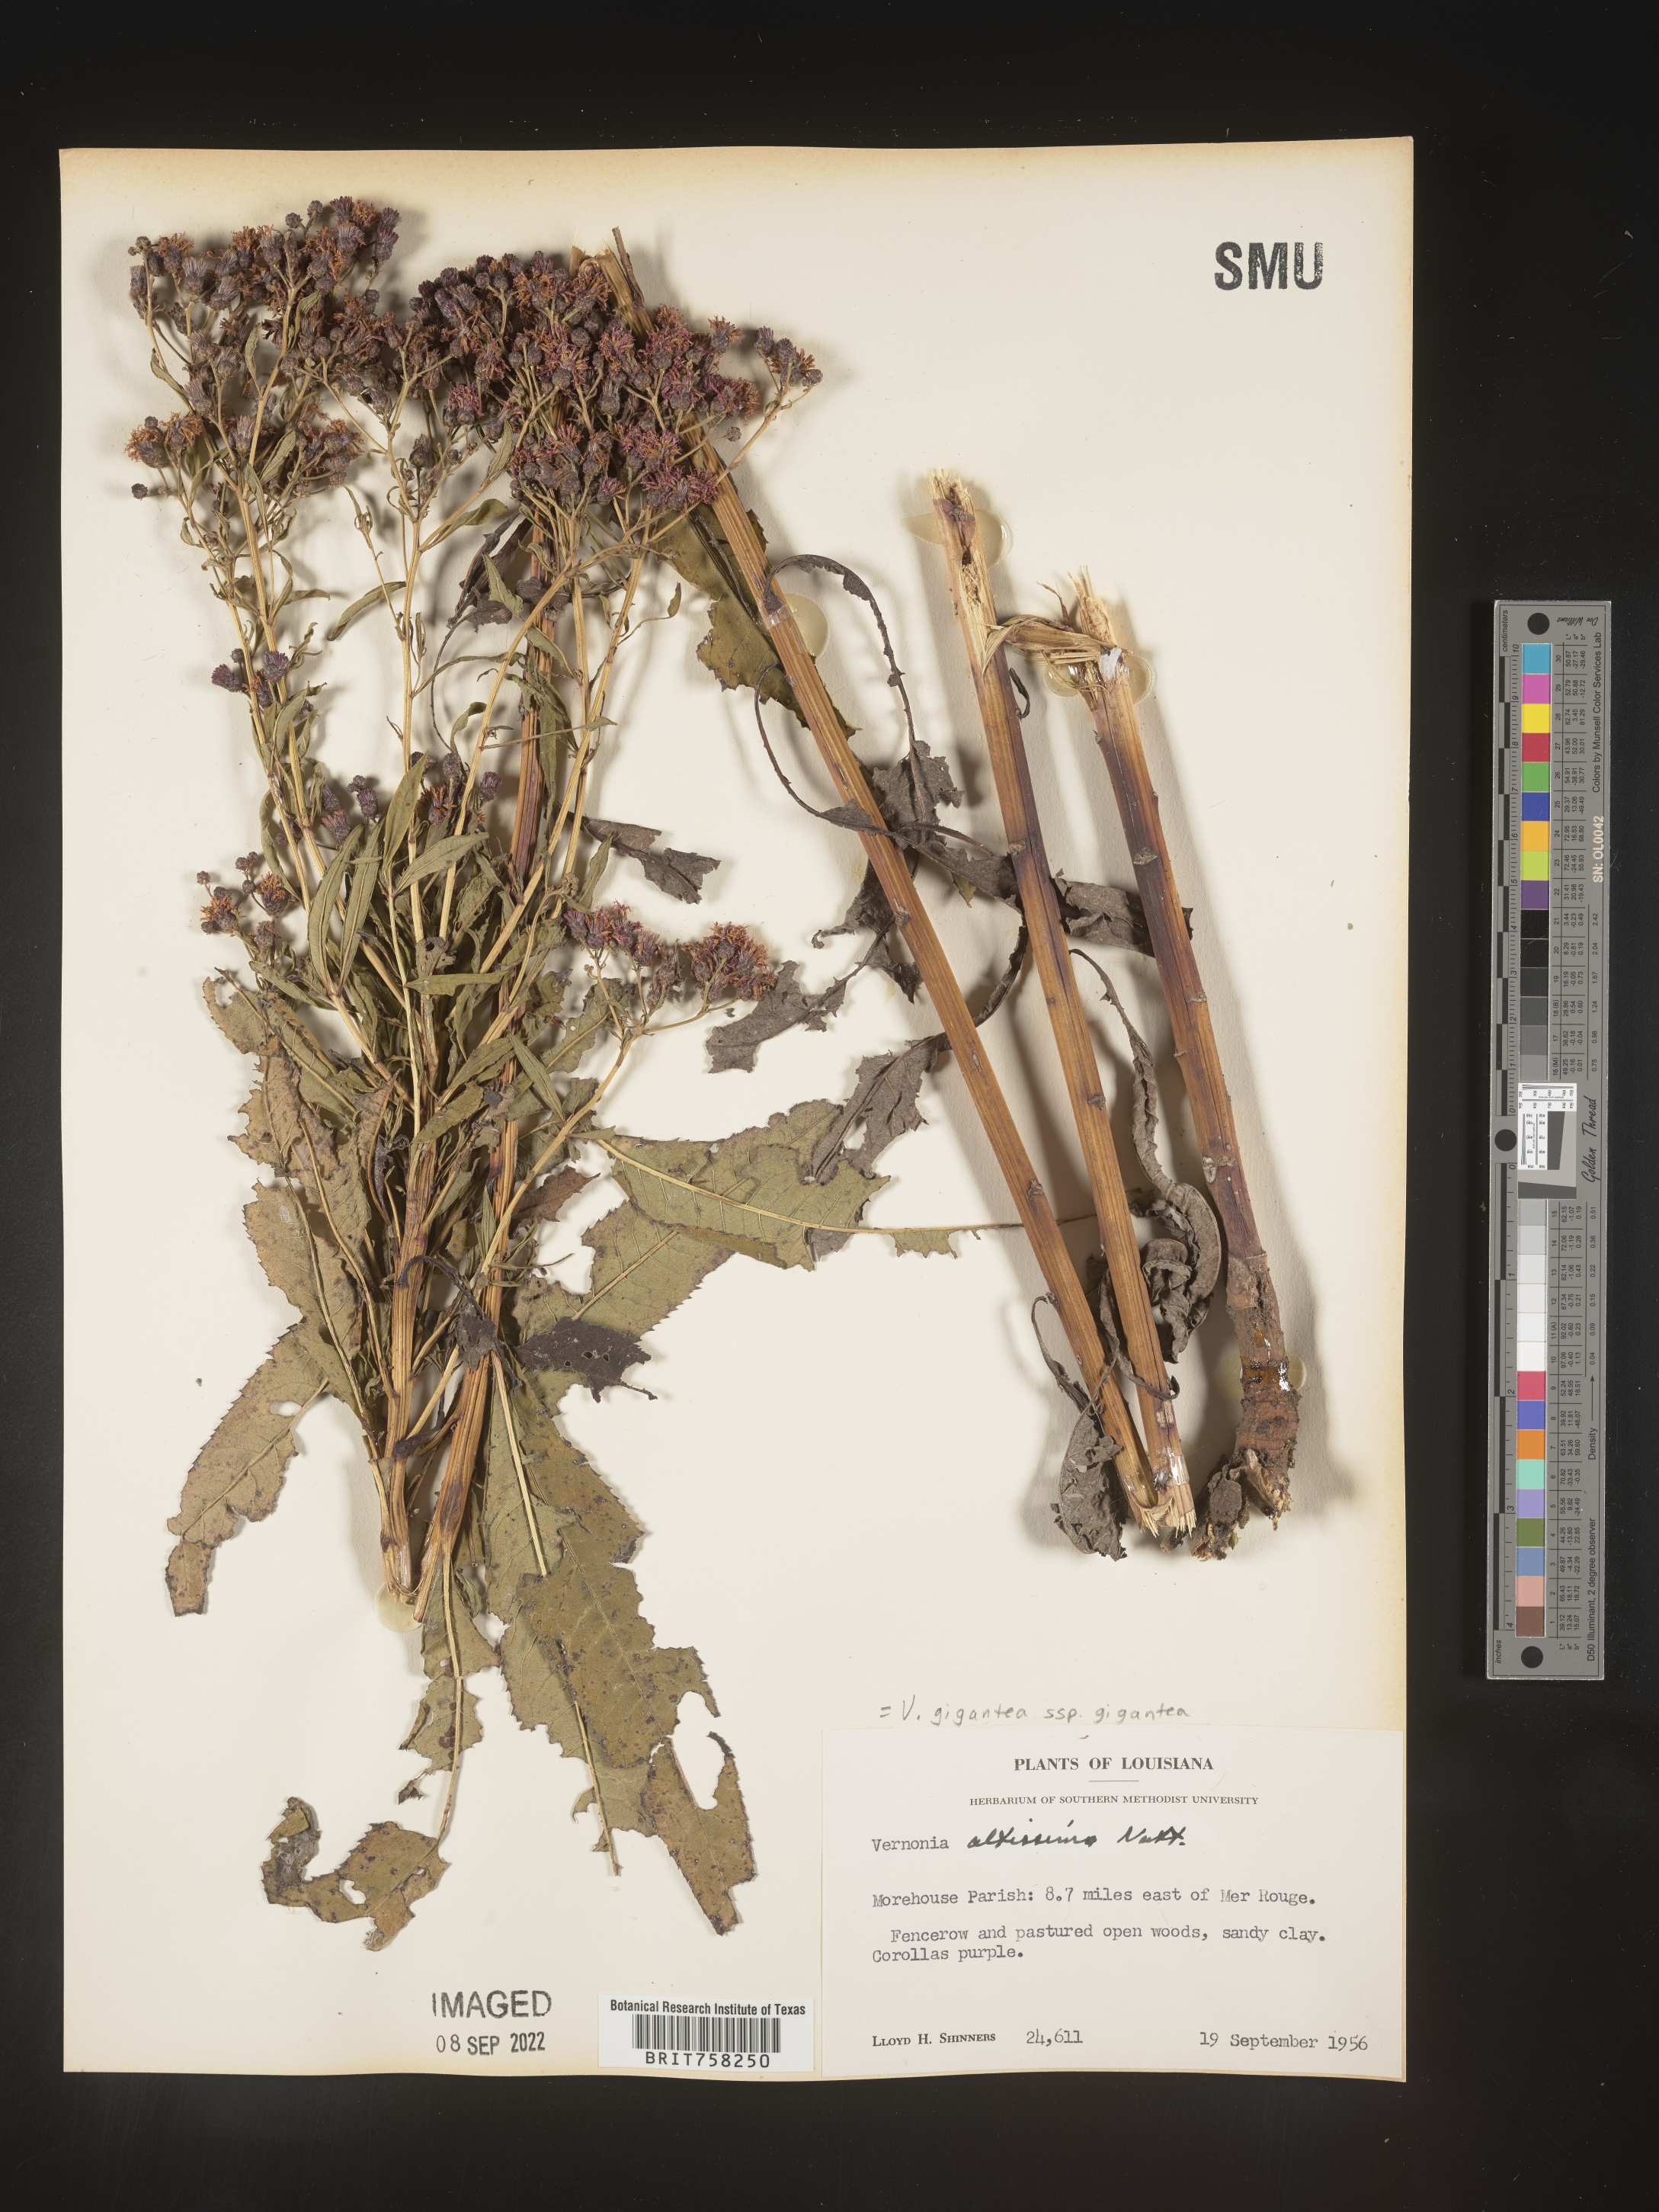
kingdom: Plantae
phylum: Tracheophyta
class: Magnoliopsida
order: Asterales
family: Asteraceae
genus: Vernonia
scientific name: Vernonia gigantea
